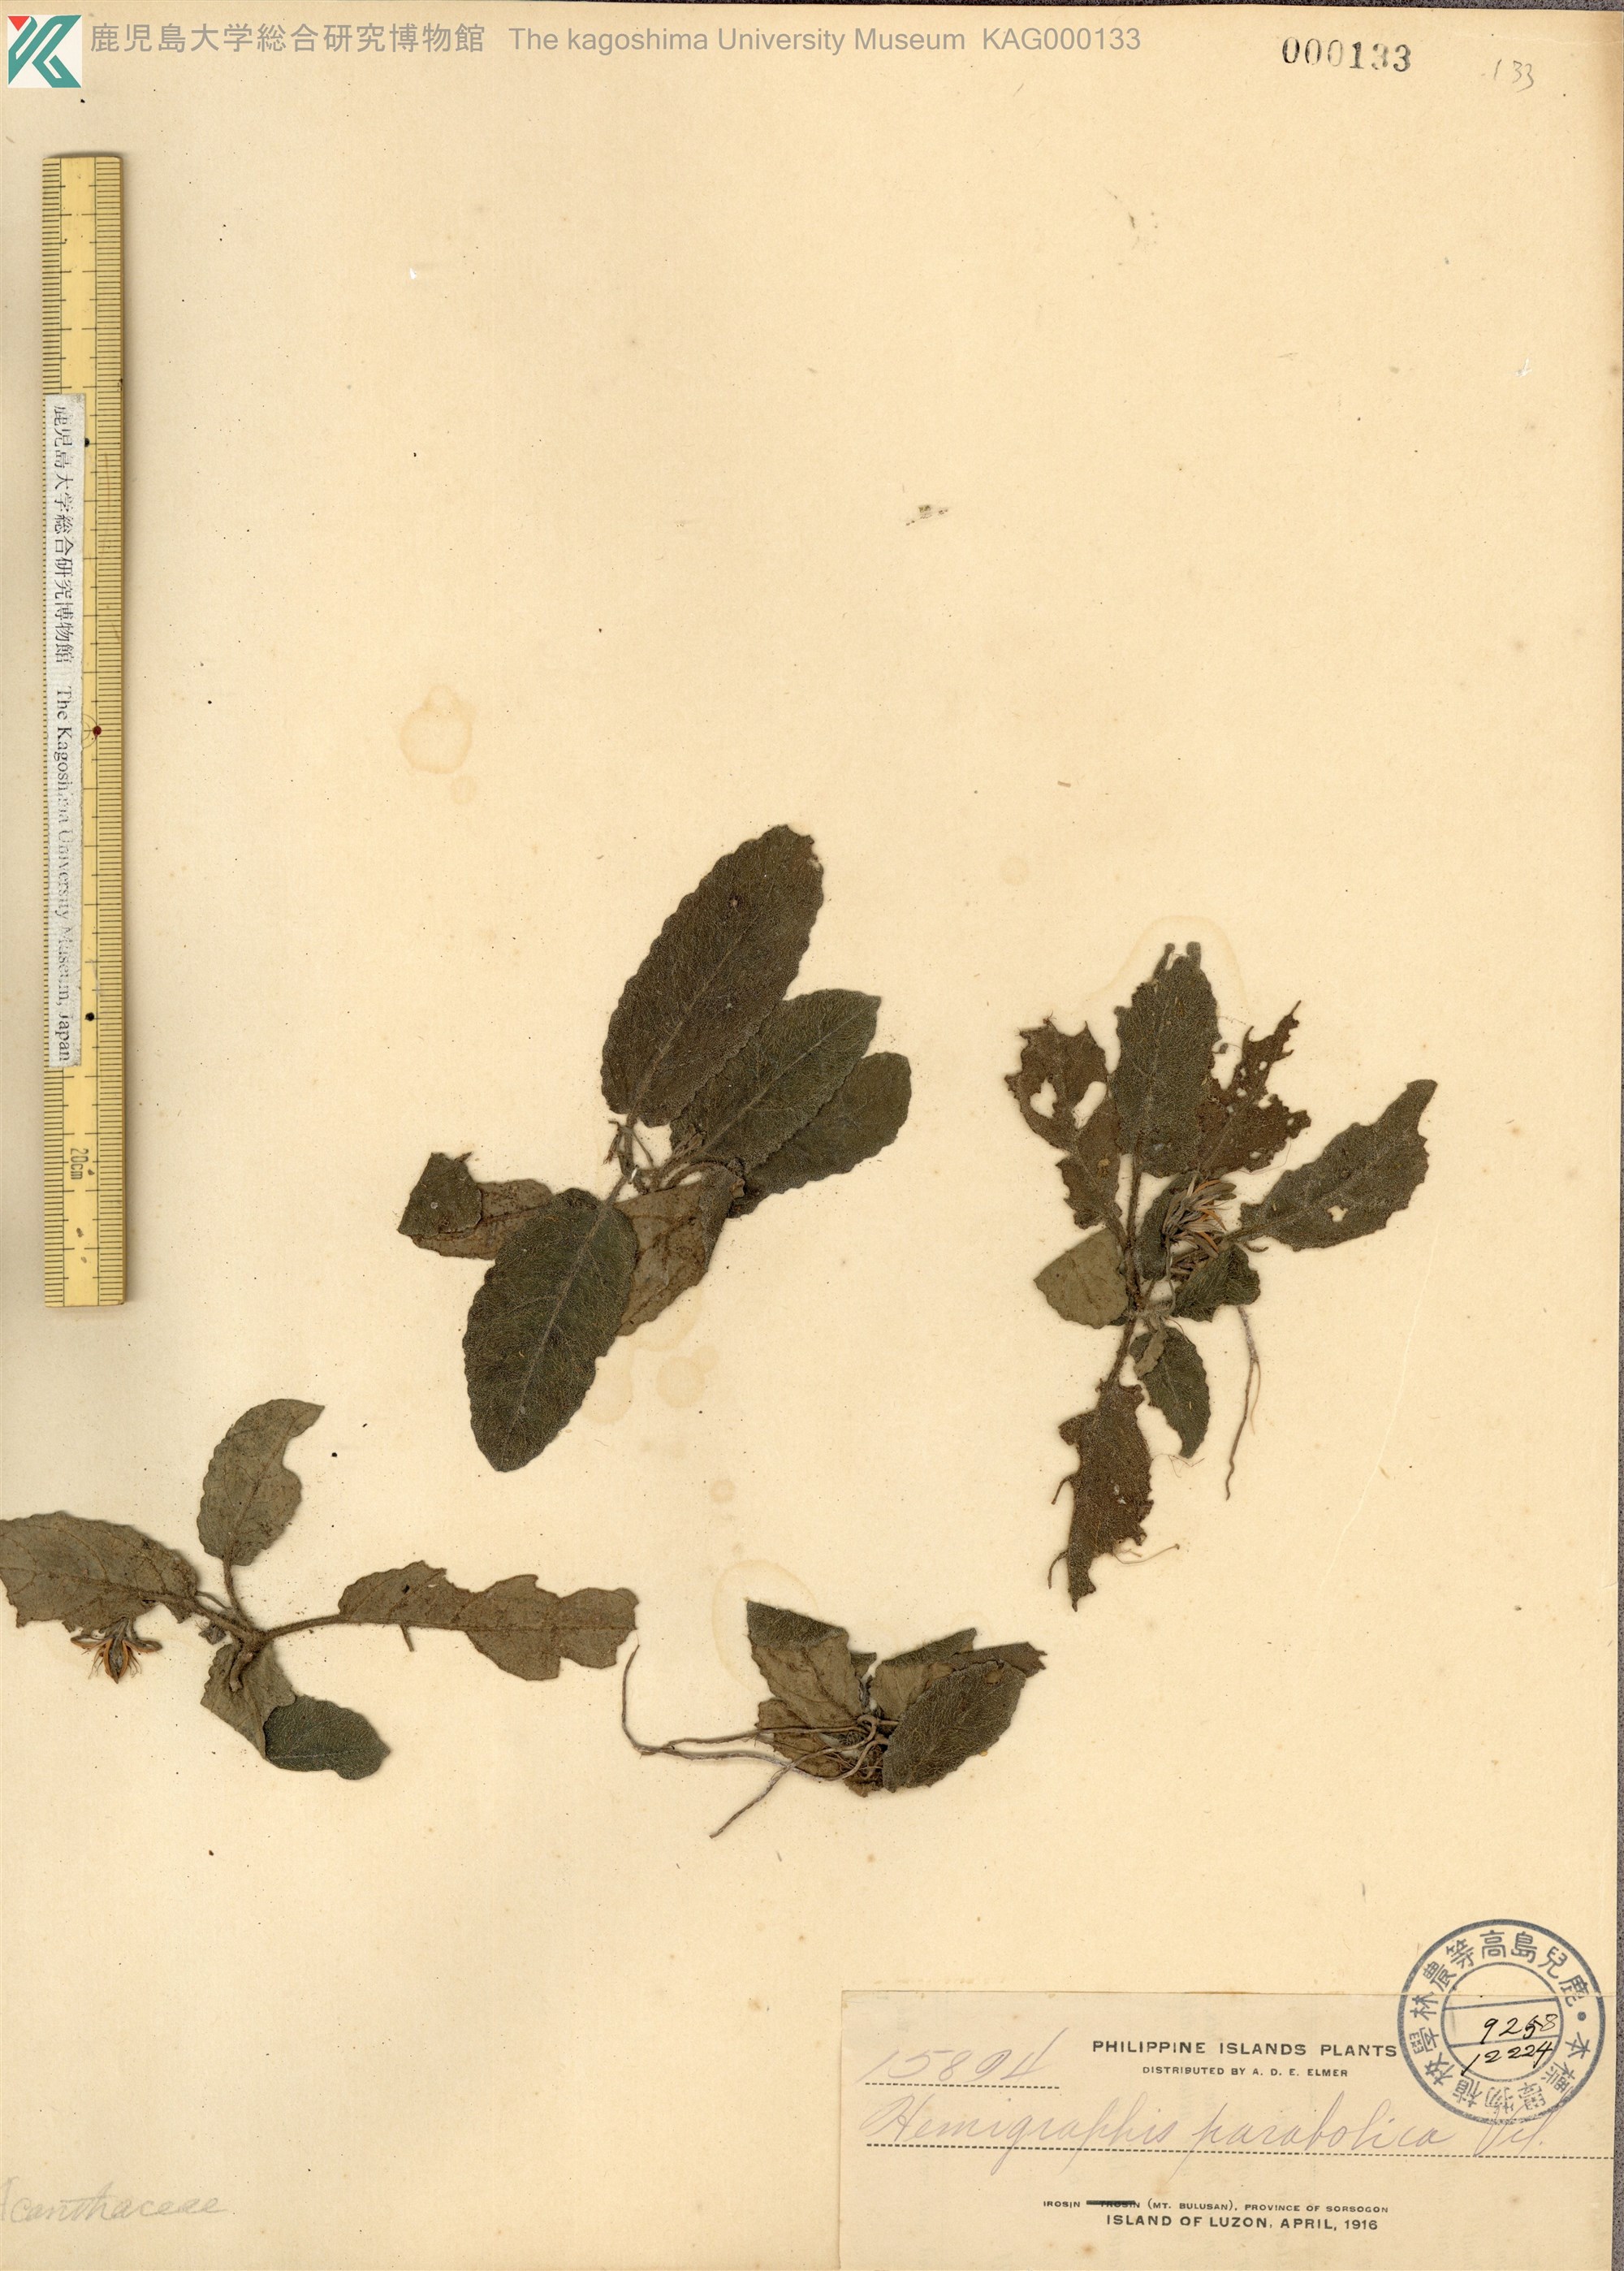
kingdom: Plantae
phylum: Tracheophyta
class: Magnoliopsida
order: Lamiales
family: Acanthaceae
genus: Strobilanthes
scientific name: Strobilanthes reptans
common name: Acanthaceae
